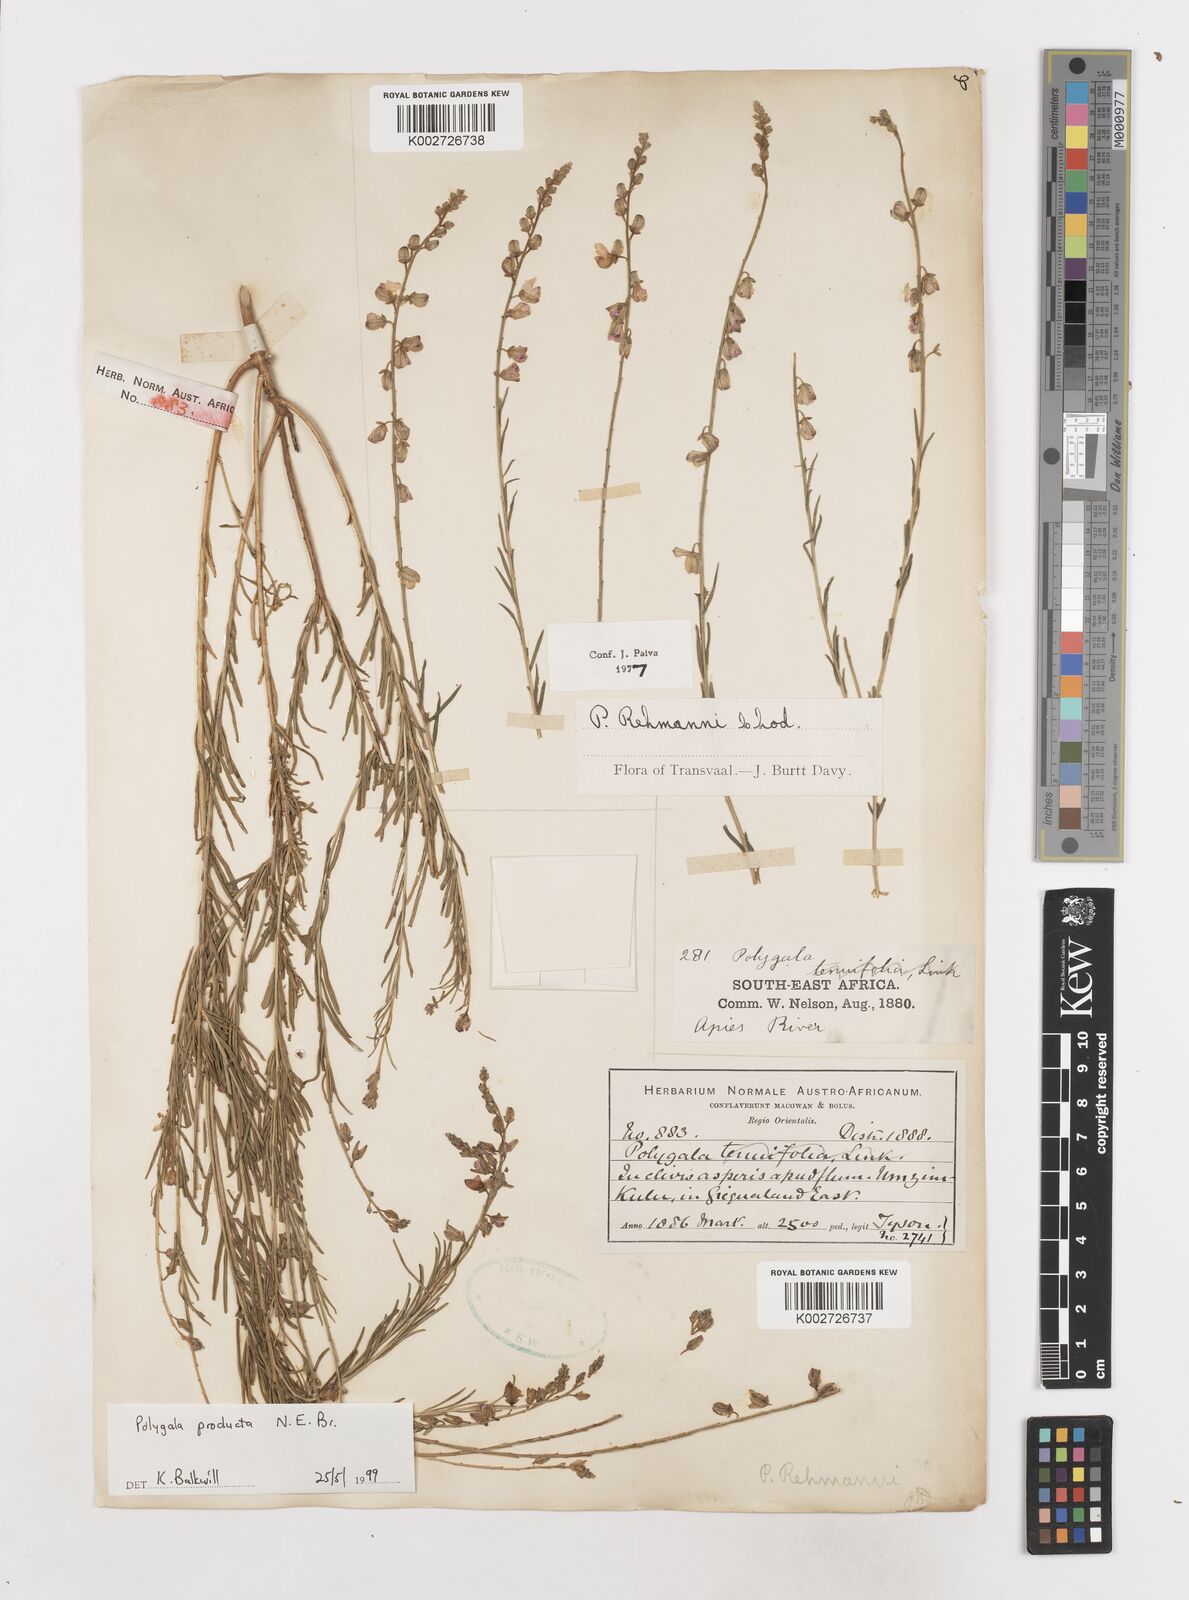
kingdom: Plantae
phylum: Tracheophyta
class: Magnoliopsida
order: Fabales
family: Polygalaceae
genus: Polygala
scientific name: Polygala producta
